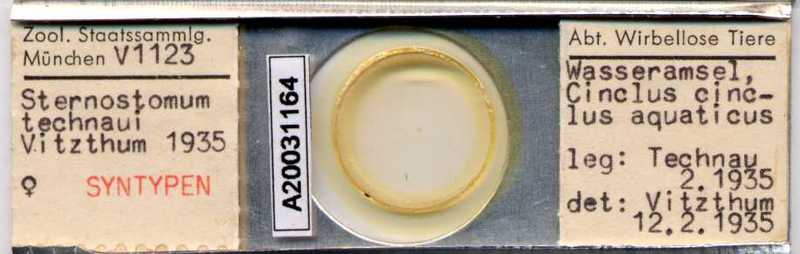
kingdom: Animalia
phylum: Arthropoda
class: Arachnida
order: Mesostigmata
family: Rhinonyssidae
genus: Sternostoma
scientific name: Sternostoma technaui
